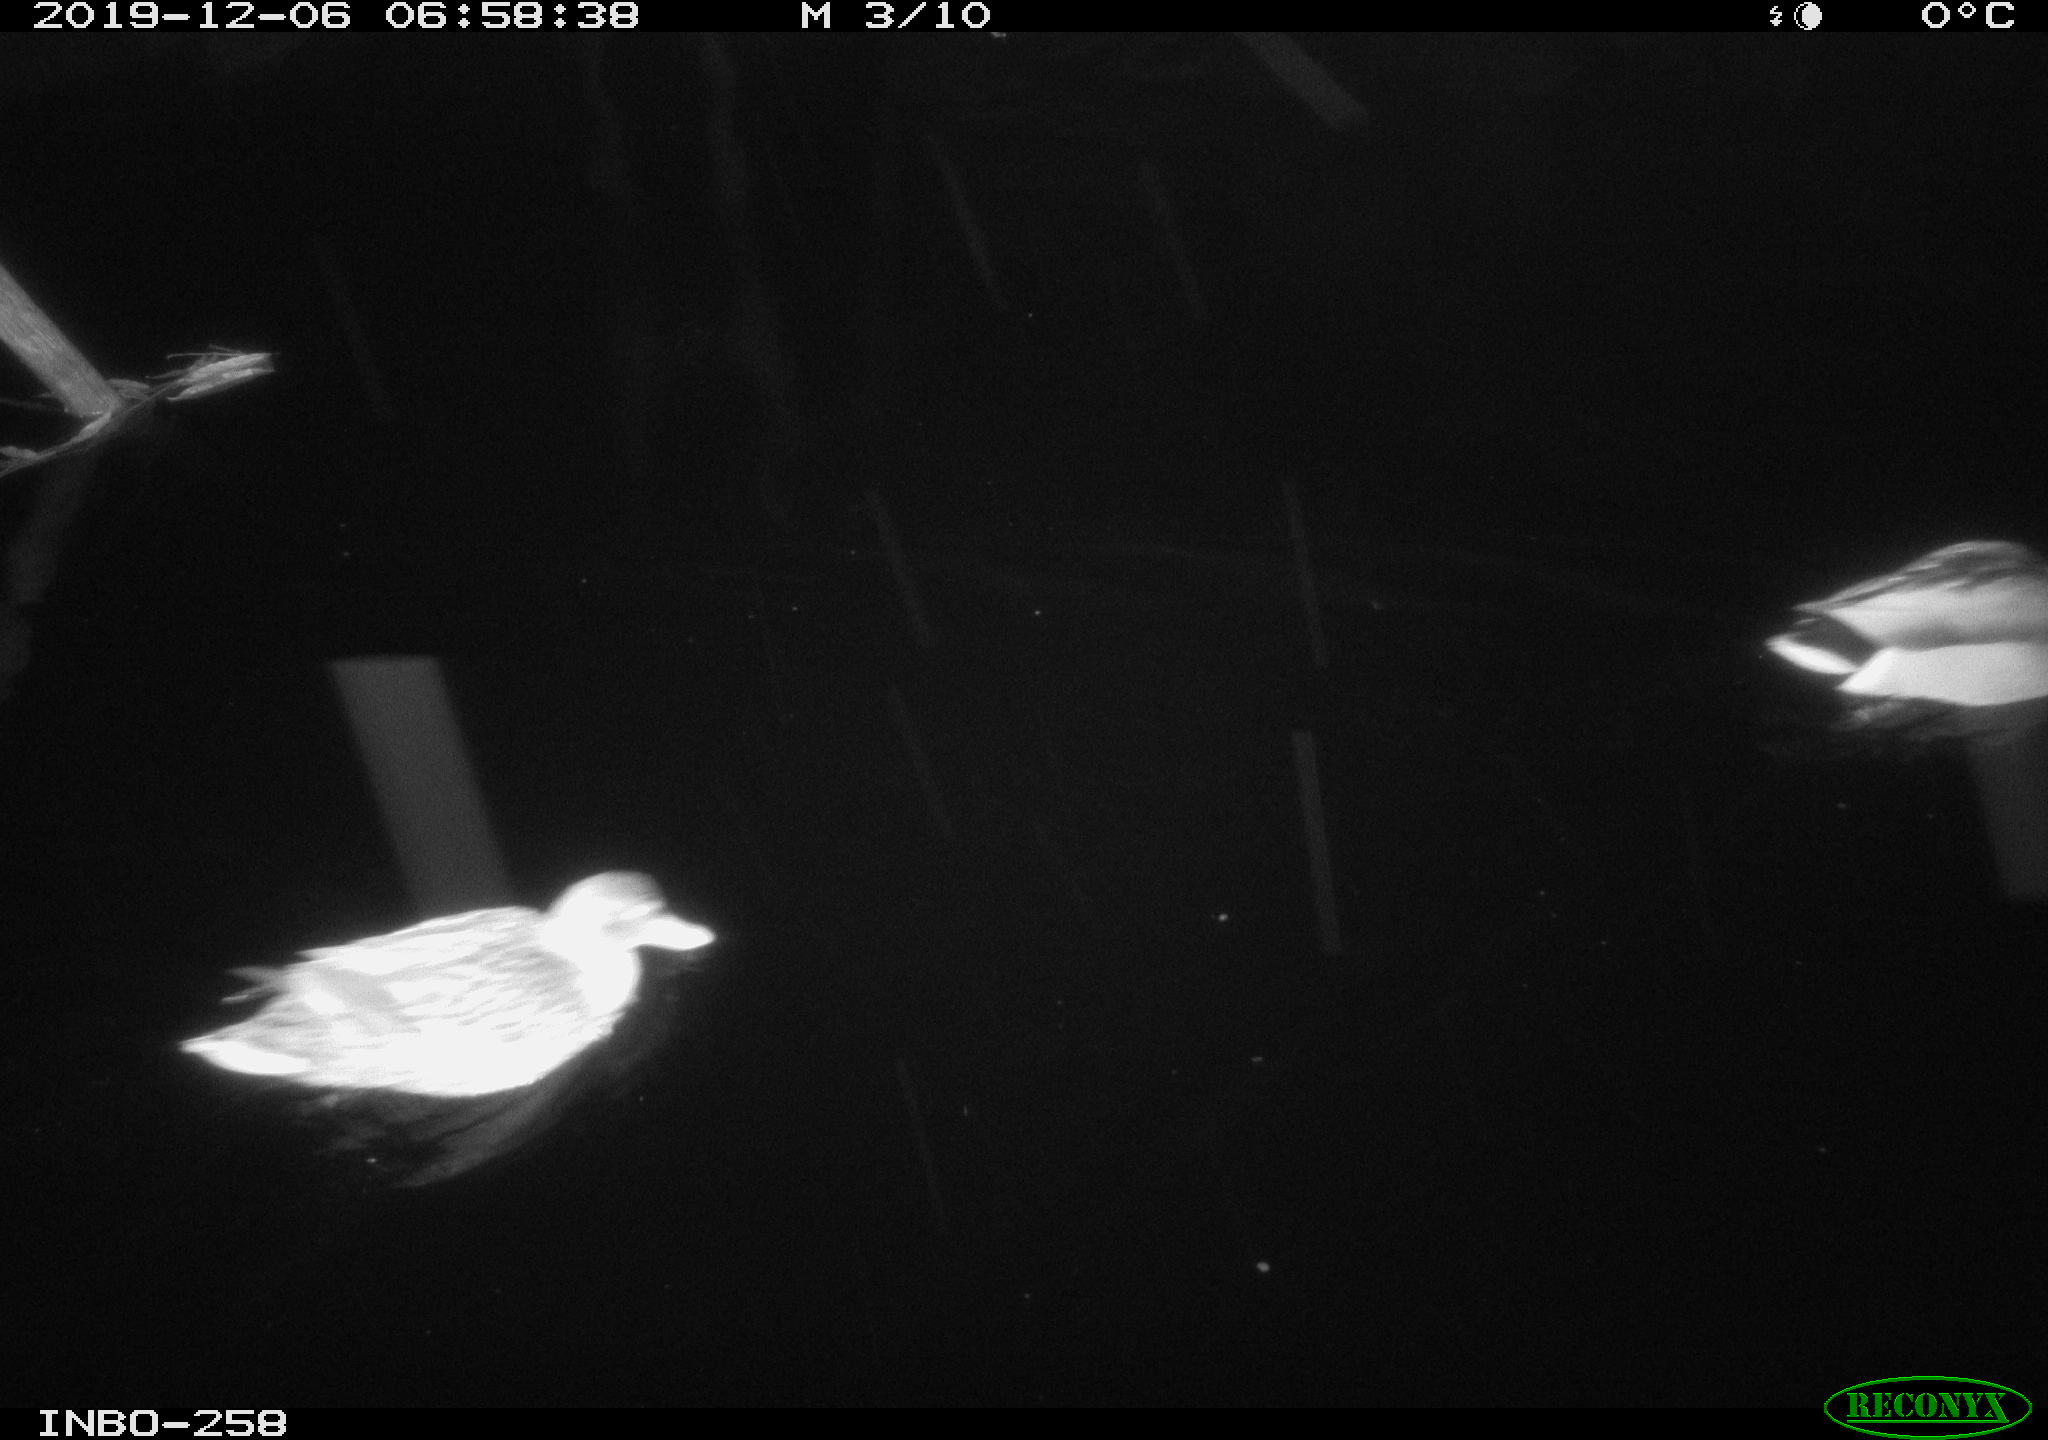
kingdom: Animalia
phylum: Chordata
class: Aves
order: Anseriformes
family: Anatidae
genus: Anas
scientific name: Anas platyrhynchos
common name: Mallard
